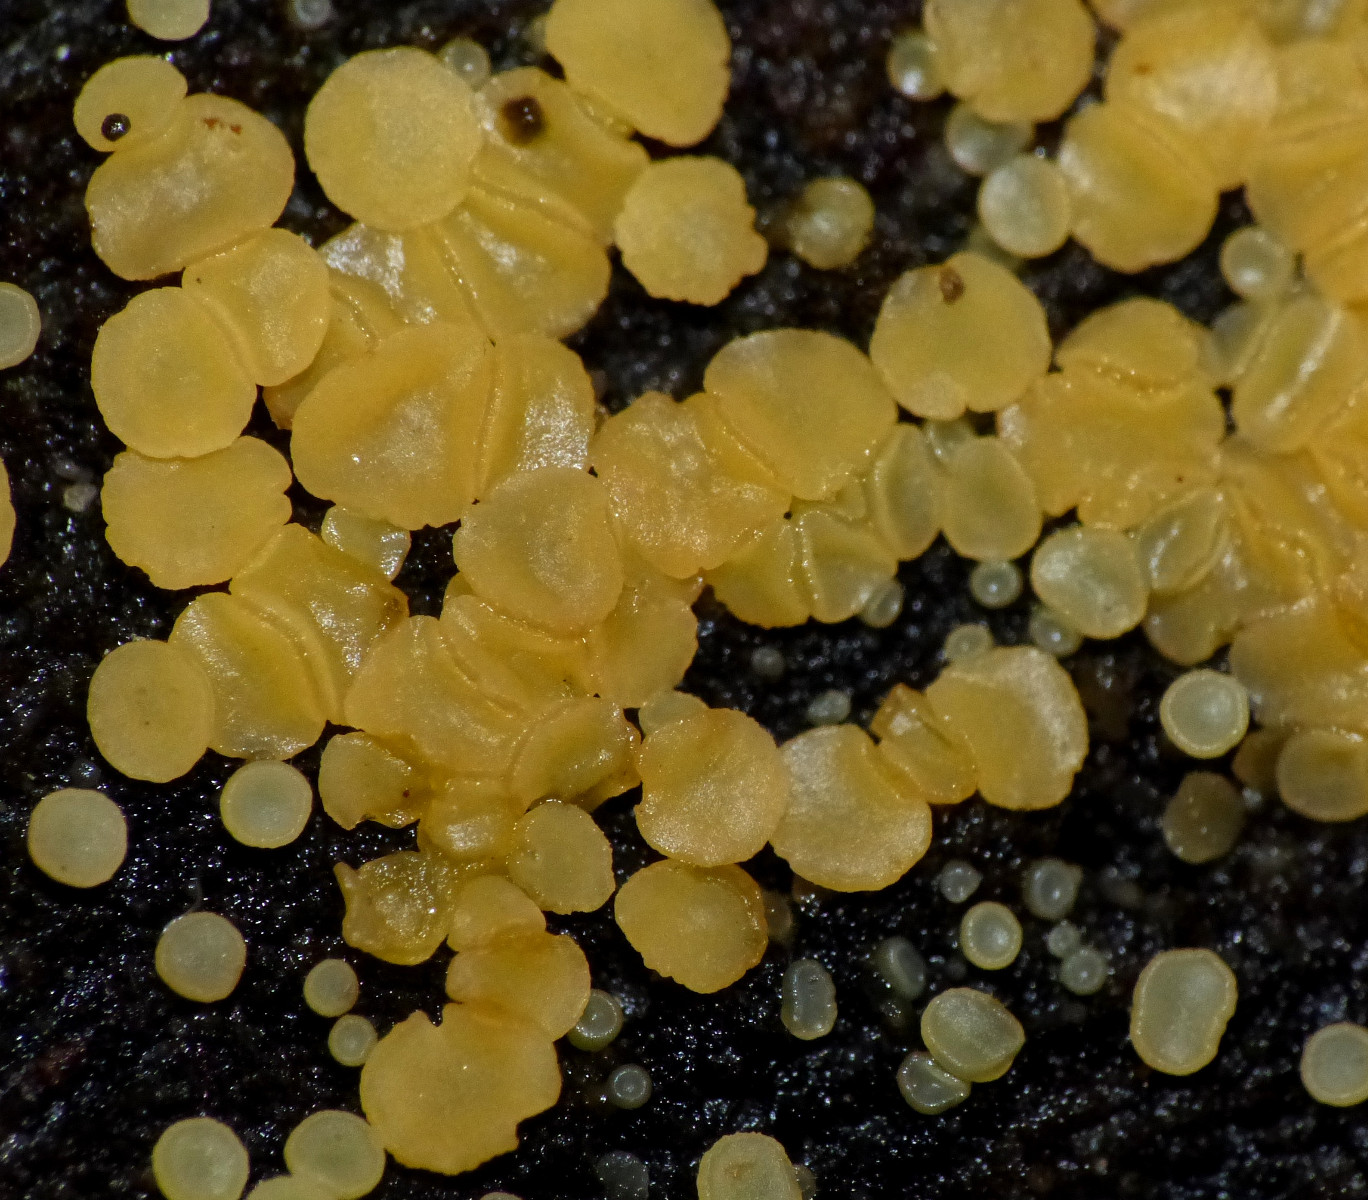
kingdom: Fungi
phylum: Ascomycota
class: Orbiliomycetes
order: Orbiliales
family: Orbiliaceae
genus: Orbilia
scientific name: Orbilia xanthostigma
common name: krumsporet voksskive
